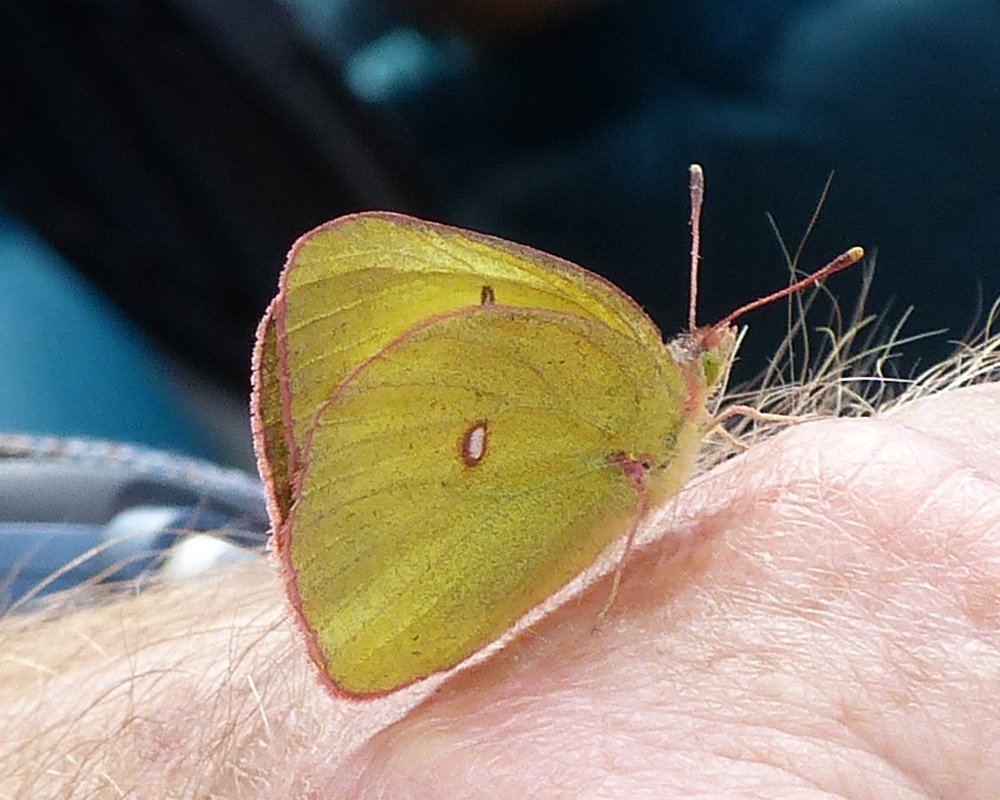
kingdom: Animalia
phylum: Arthropoda
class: Insecta
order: Lepidoptera
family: Pieridae
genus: Colias
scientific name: Colias interior
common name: Pink-edged Sulphur
